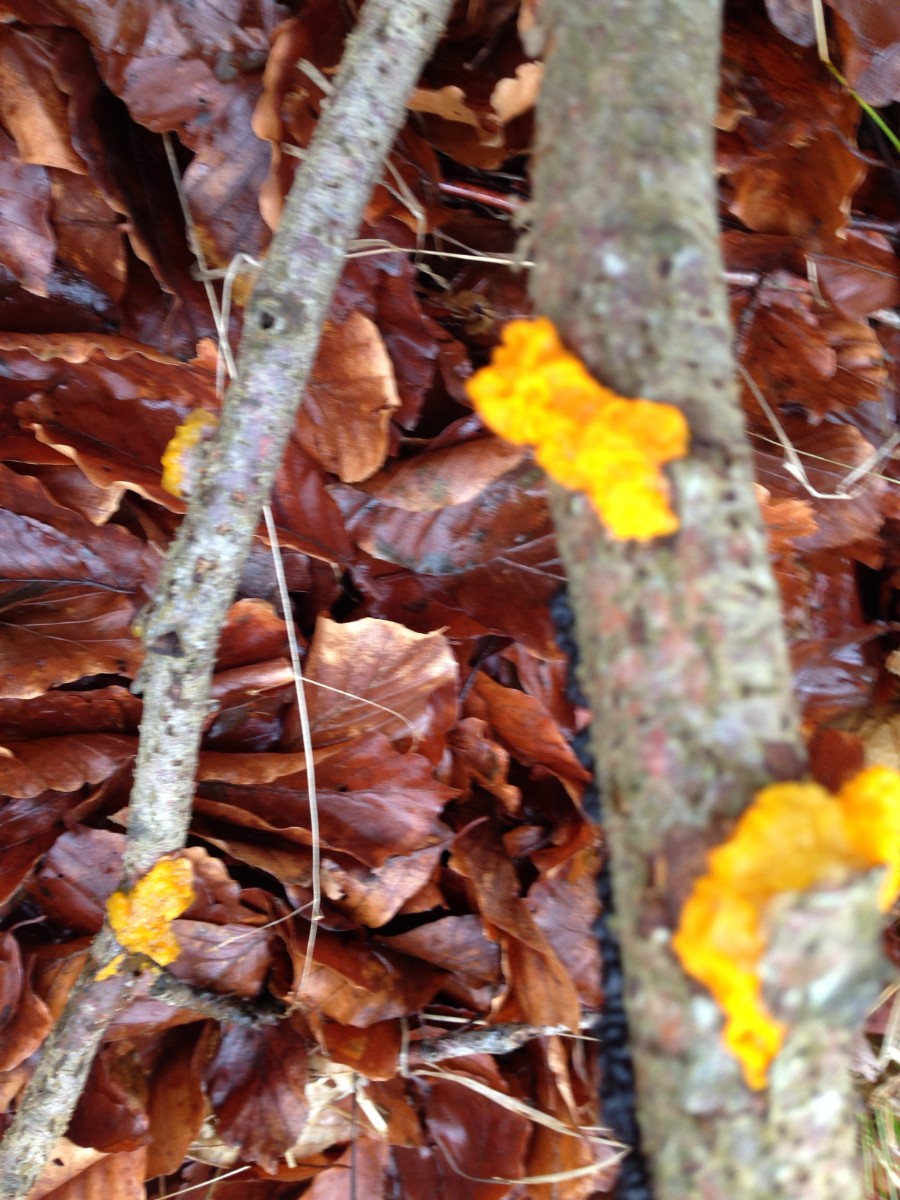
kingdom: Fungi
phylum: Basidiomycota
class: Tremellomycetes
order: Tremellales
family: Tremellaceae
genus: Tremella
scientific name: Tremella mesenterica
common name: gul bævresvamp
